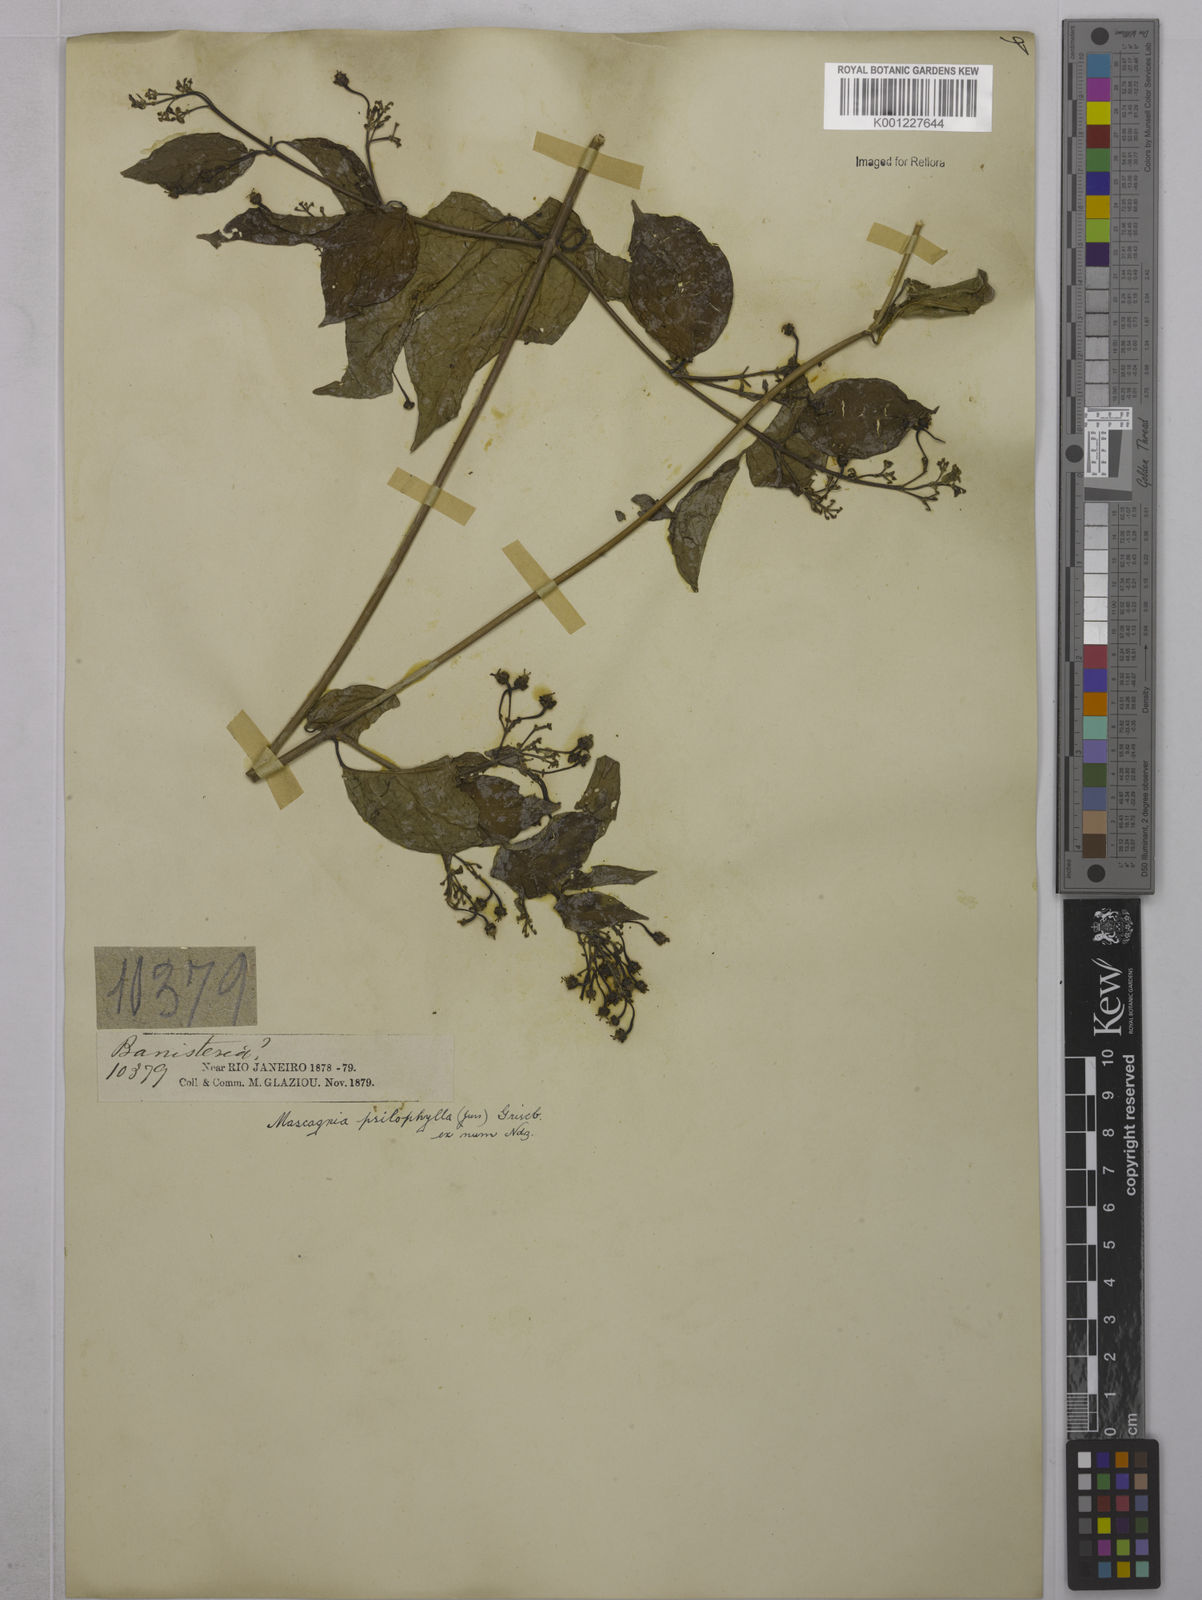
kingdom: Plantae
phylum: Tracheophyta
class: Magnoliopsida
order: Malpighiales
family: Malpighiaceae
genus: Callaeum
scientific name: Callaeum psilophyllum
